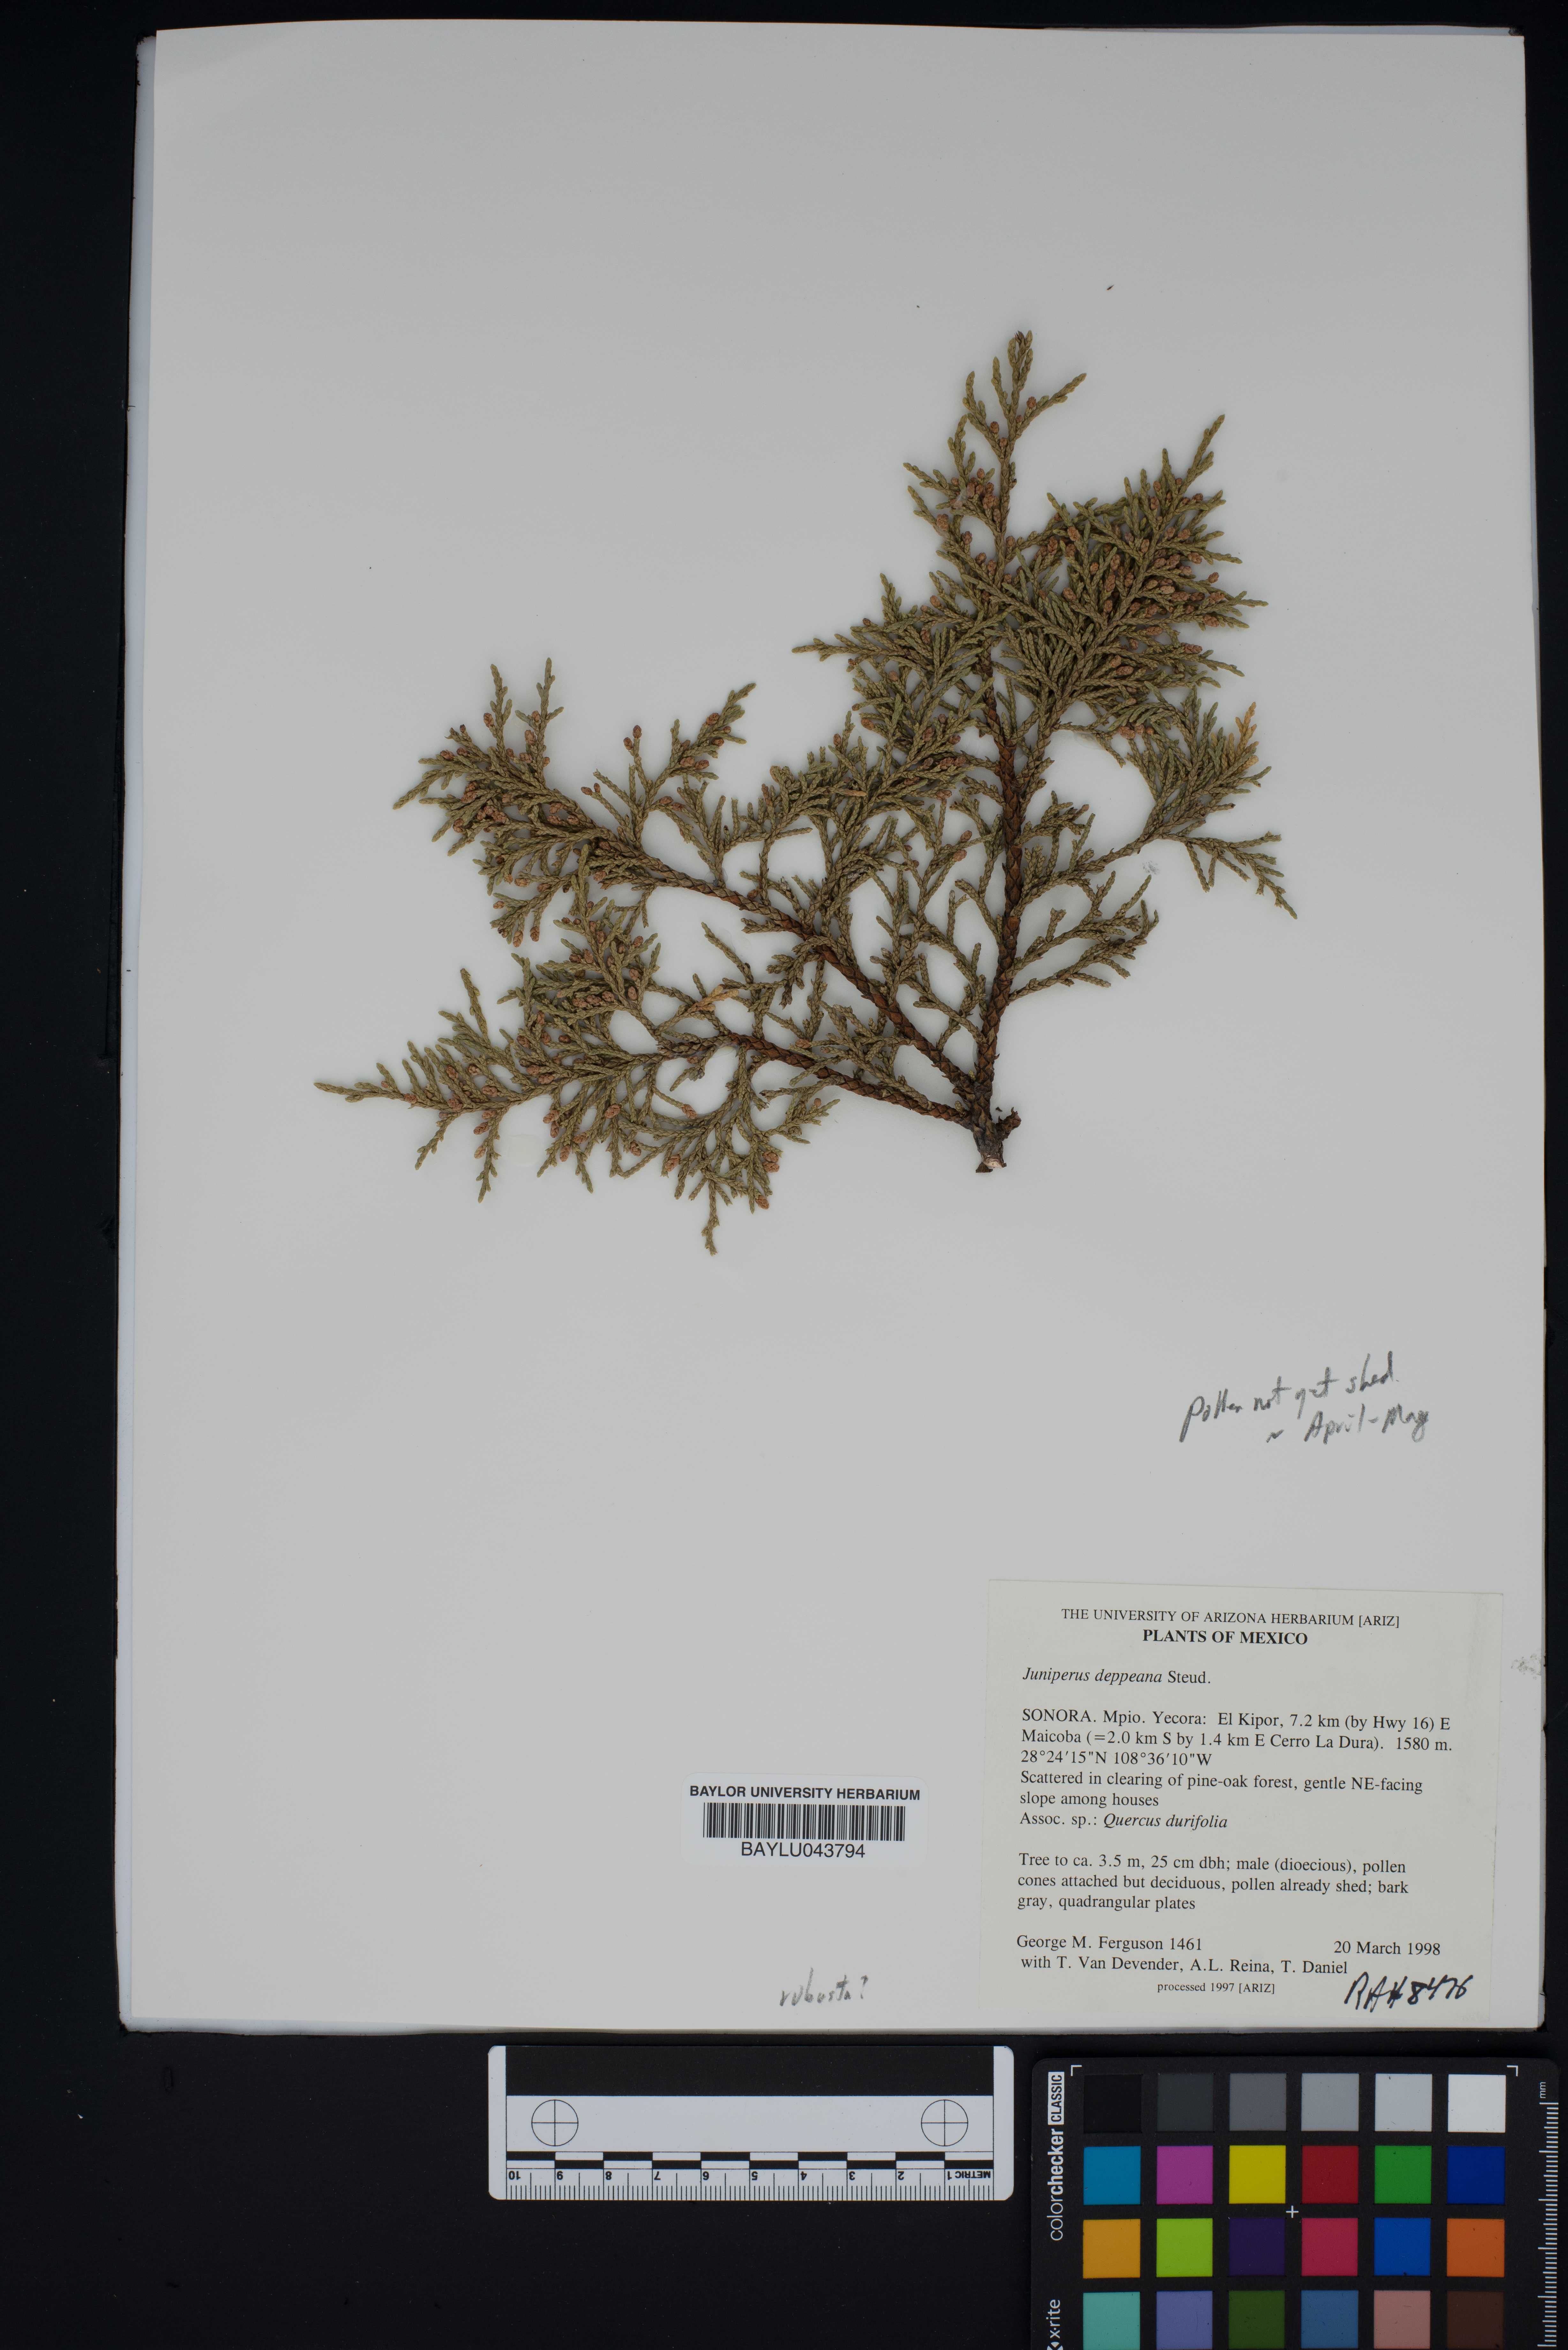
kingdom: Plantae
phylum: Tracheophyta
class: Pinopsida
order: Pinales
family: Cupressaceae
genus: Juniperus
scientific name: Juniperus deppeana
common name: Alligator juniper
